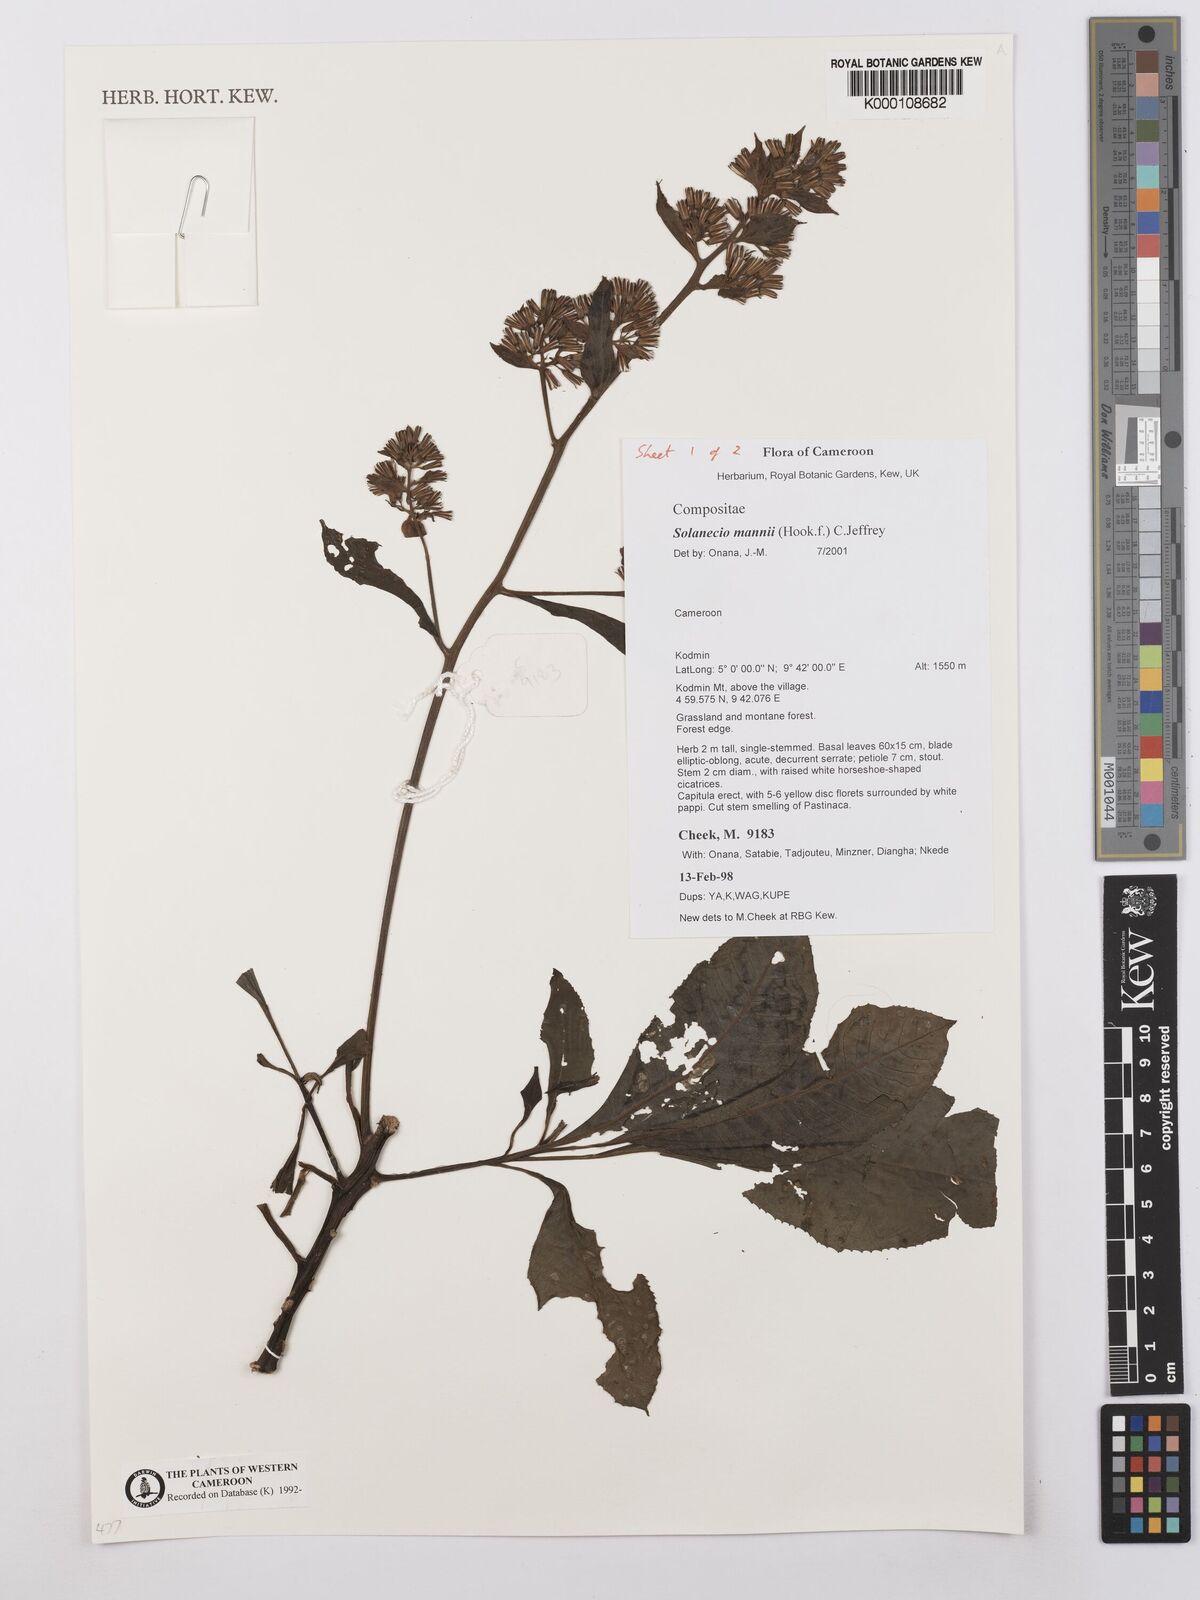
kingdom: Plantae
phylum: Tracheophyta
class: Magnoliopsida
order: Asterales
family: Asteraceae
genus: Solanecio
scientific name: Solanecio mannii
